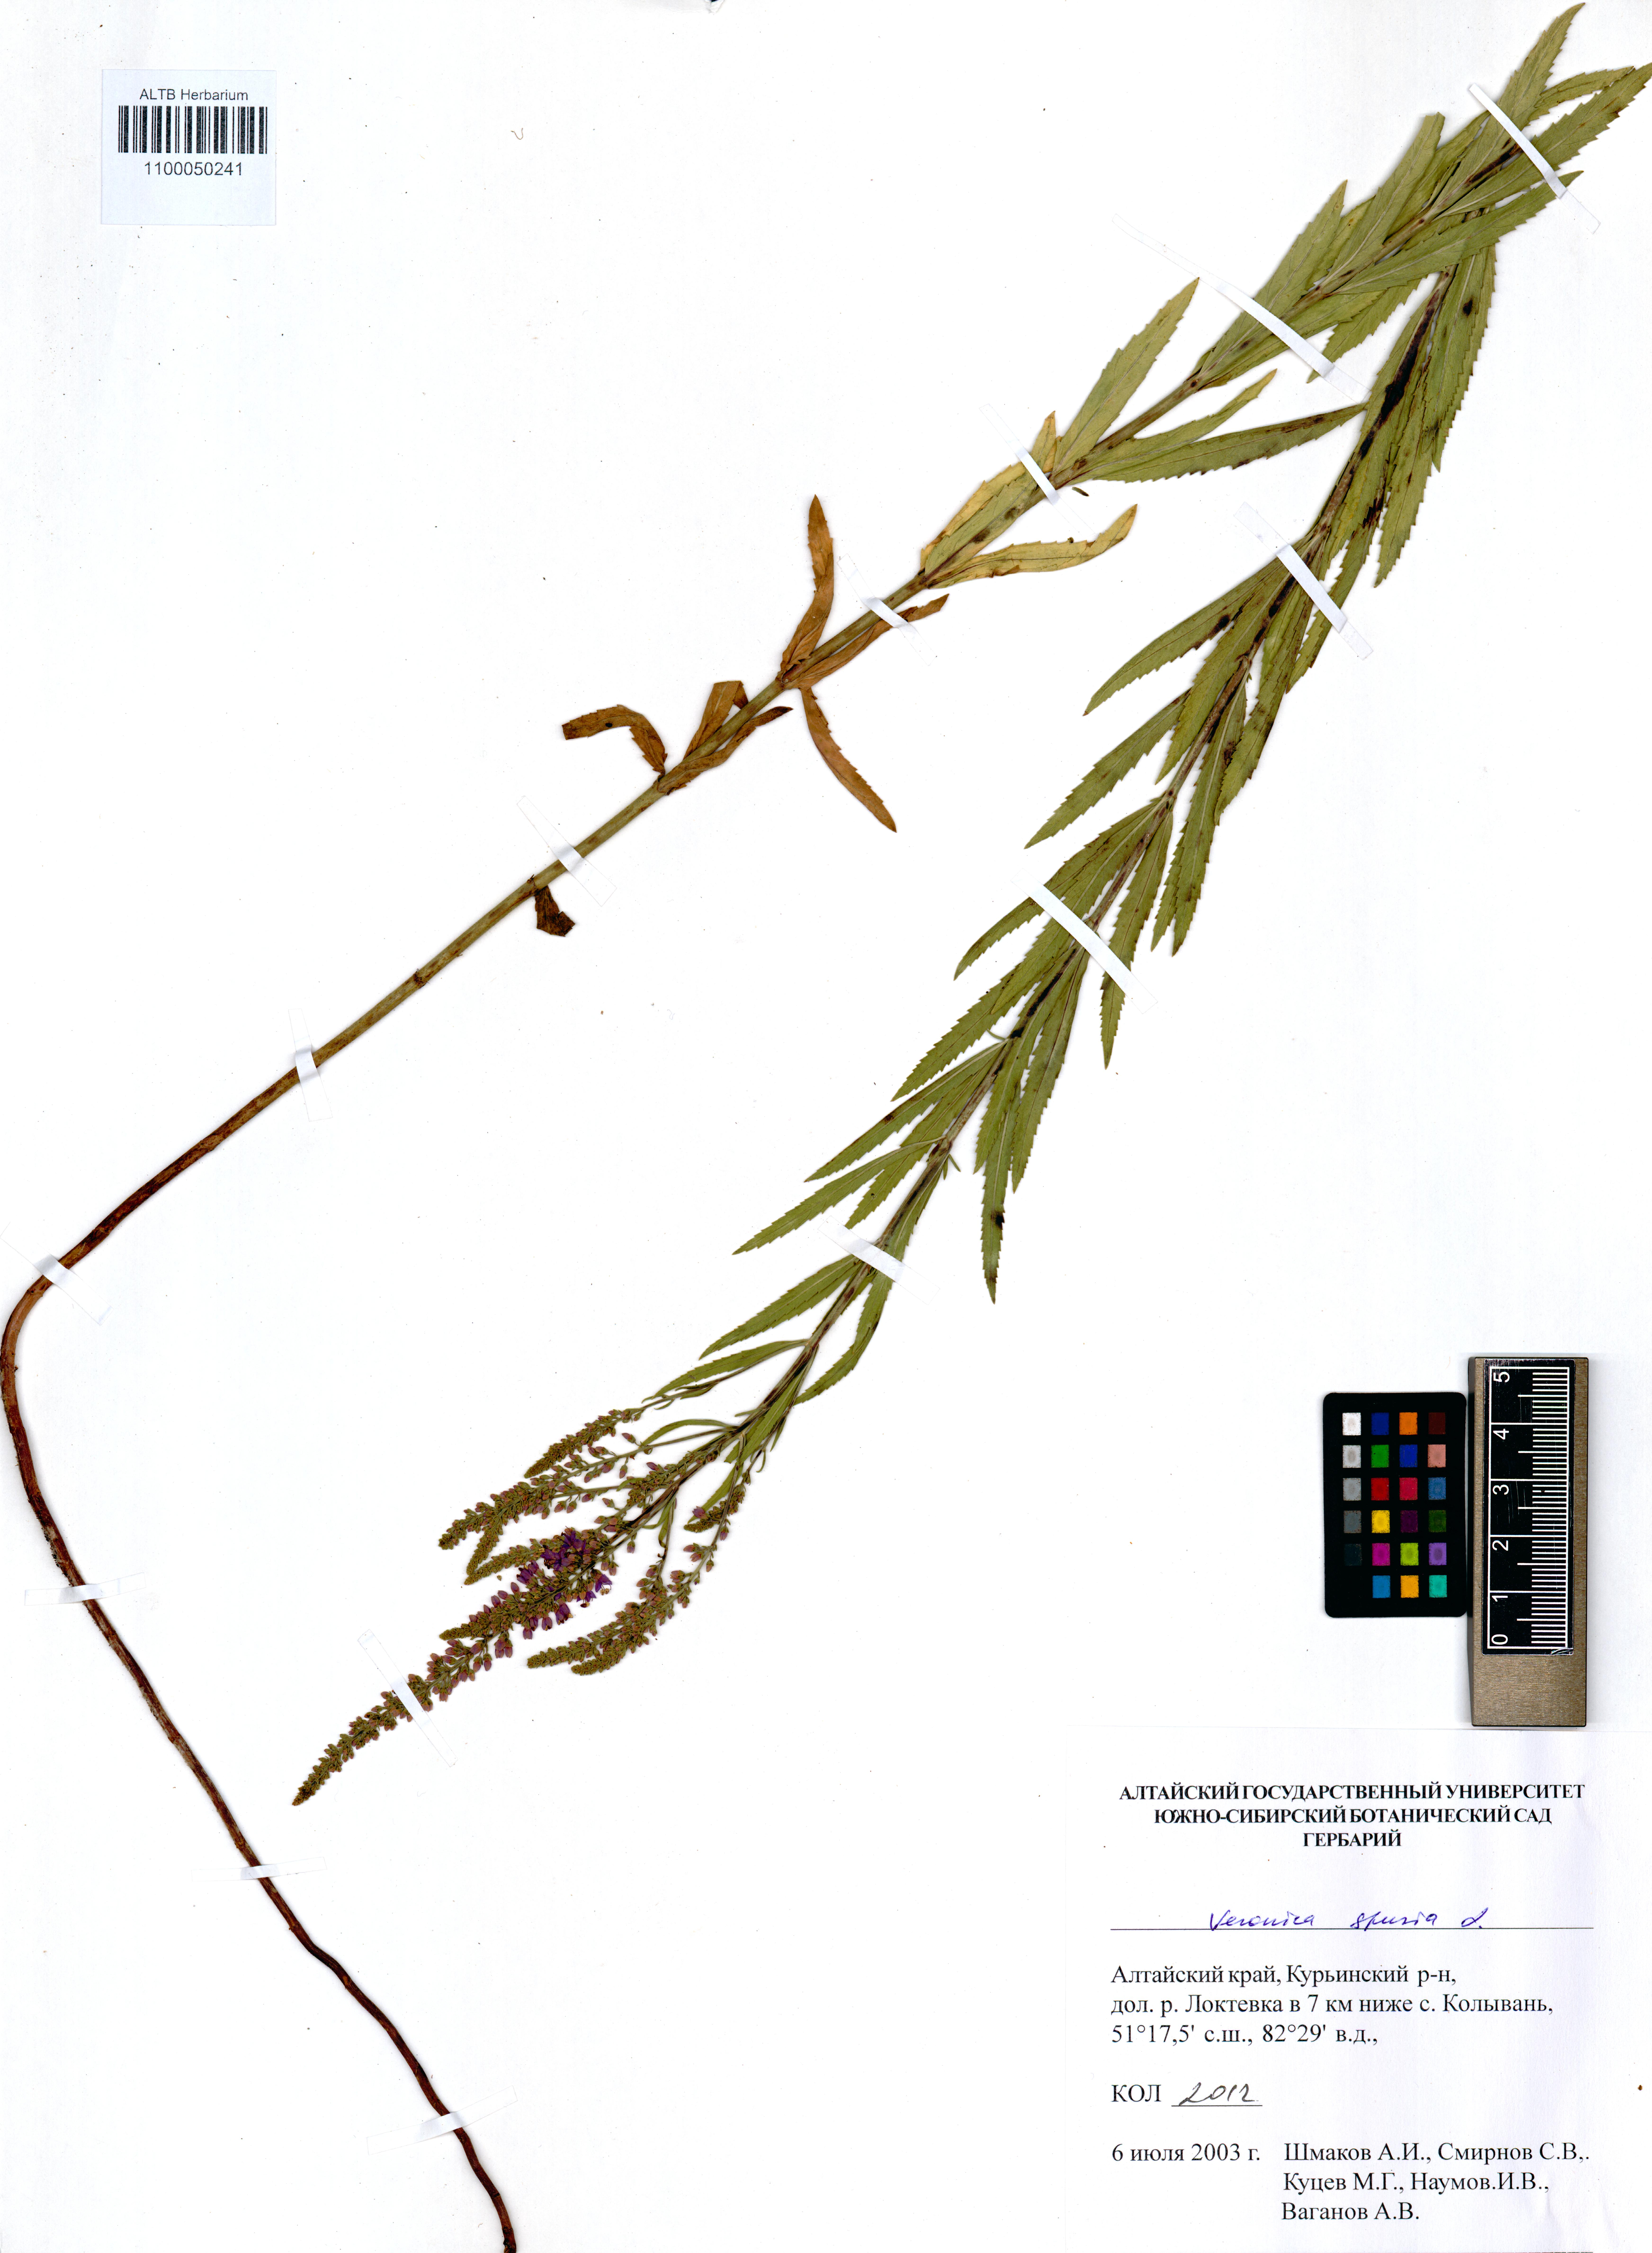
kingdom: Plantae
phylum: Tracheophyta
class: Magnoliopsida
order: Lamiales
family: Plantaginaceae
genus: Veronica
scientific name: Veronica spuria
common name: Bastard speedwell
